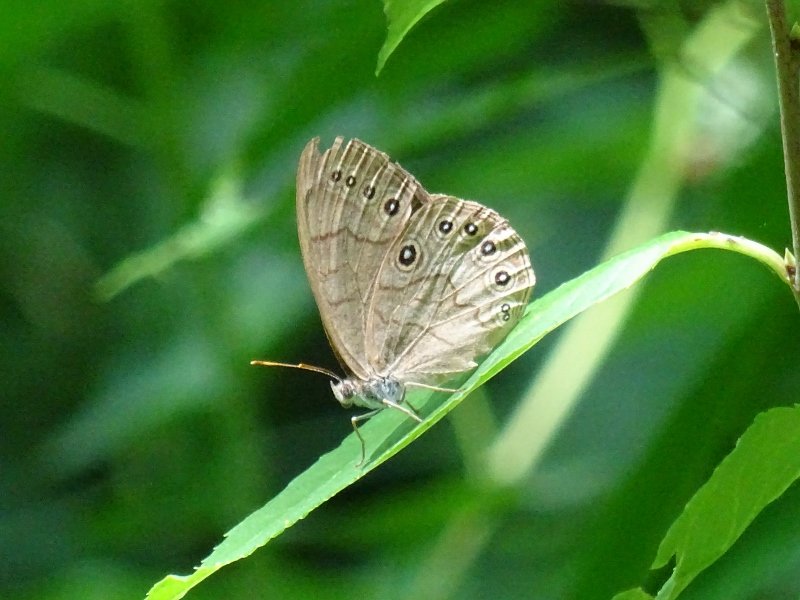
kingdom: Animalia
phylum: Arthropoda
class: Insecta
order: Lepidoptera
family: Nymphalidae
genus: Lethe
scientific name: Lethe
